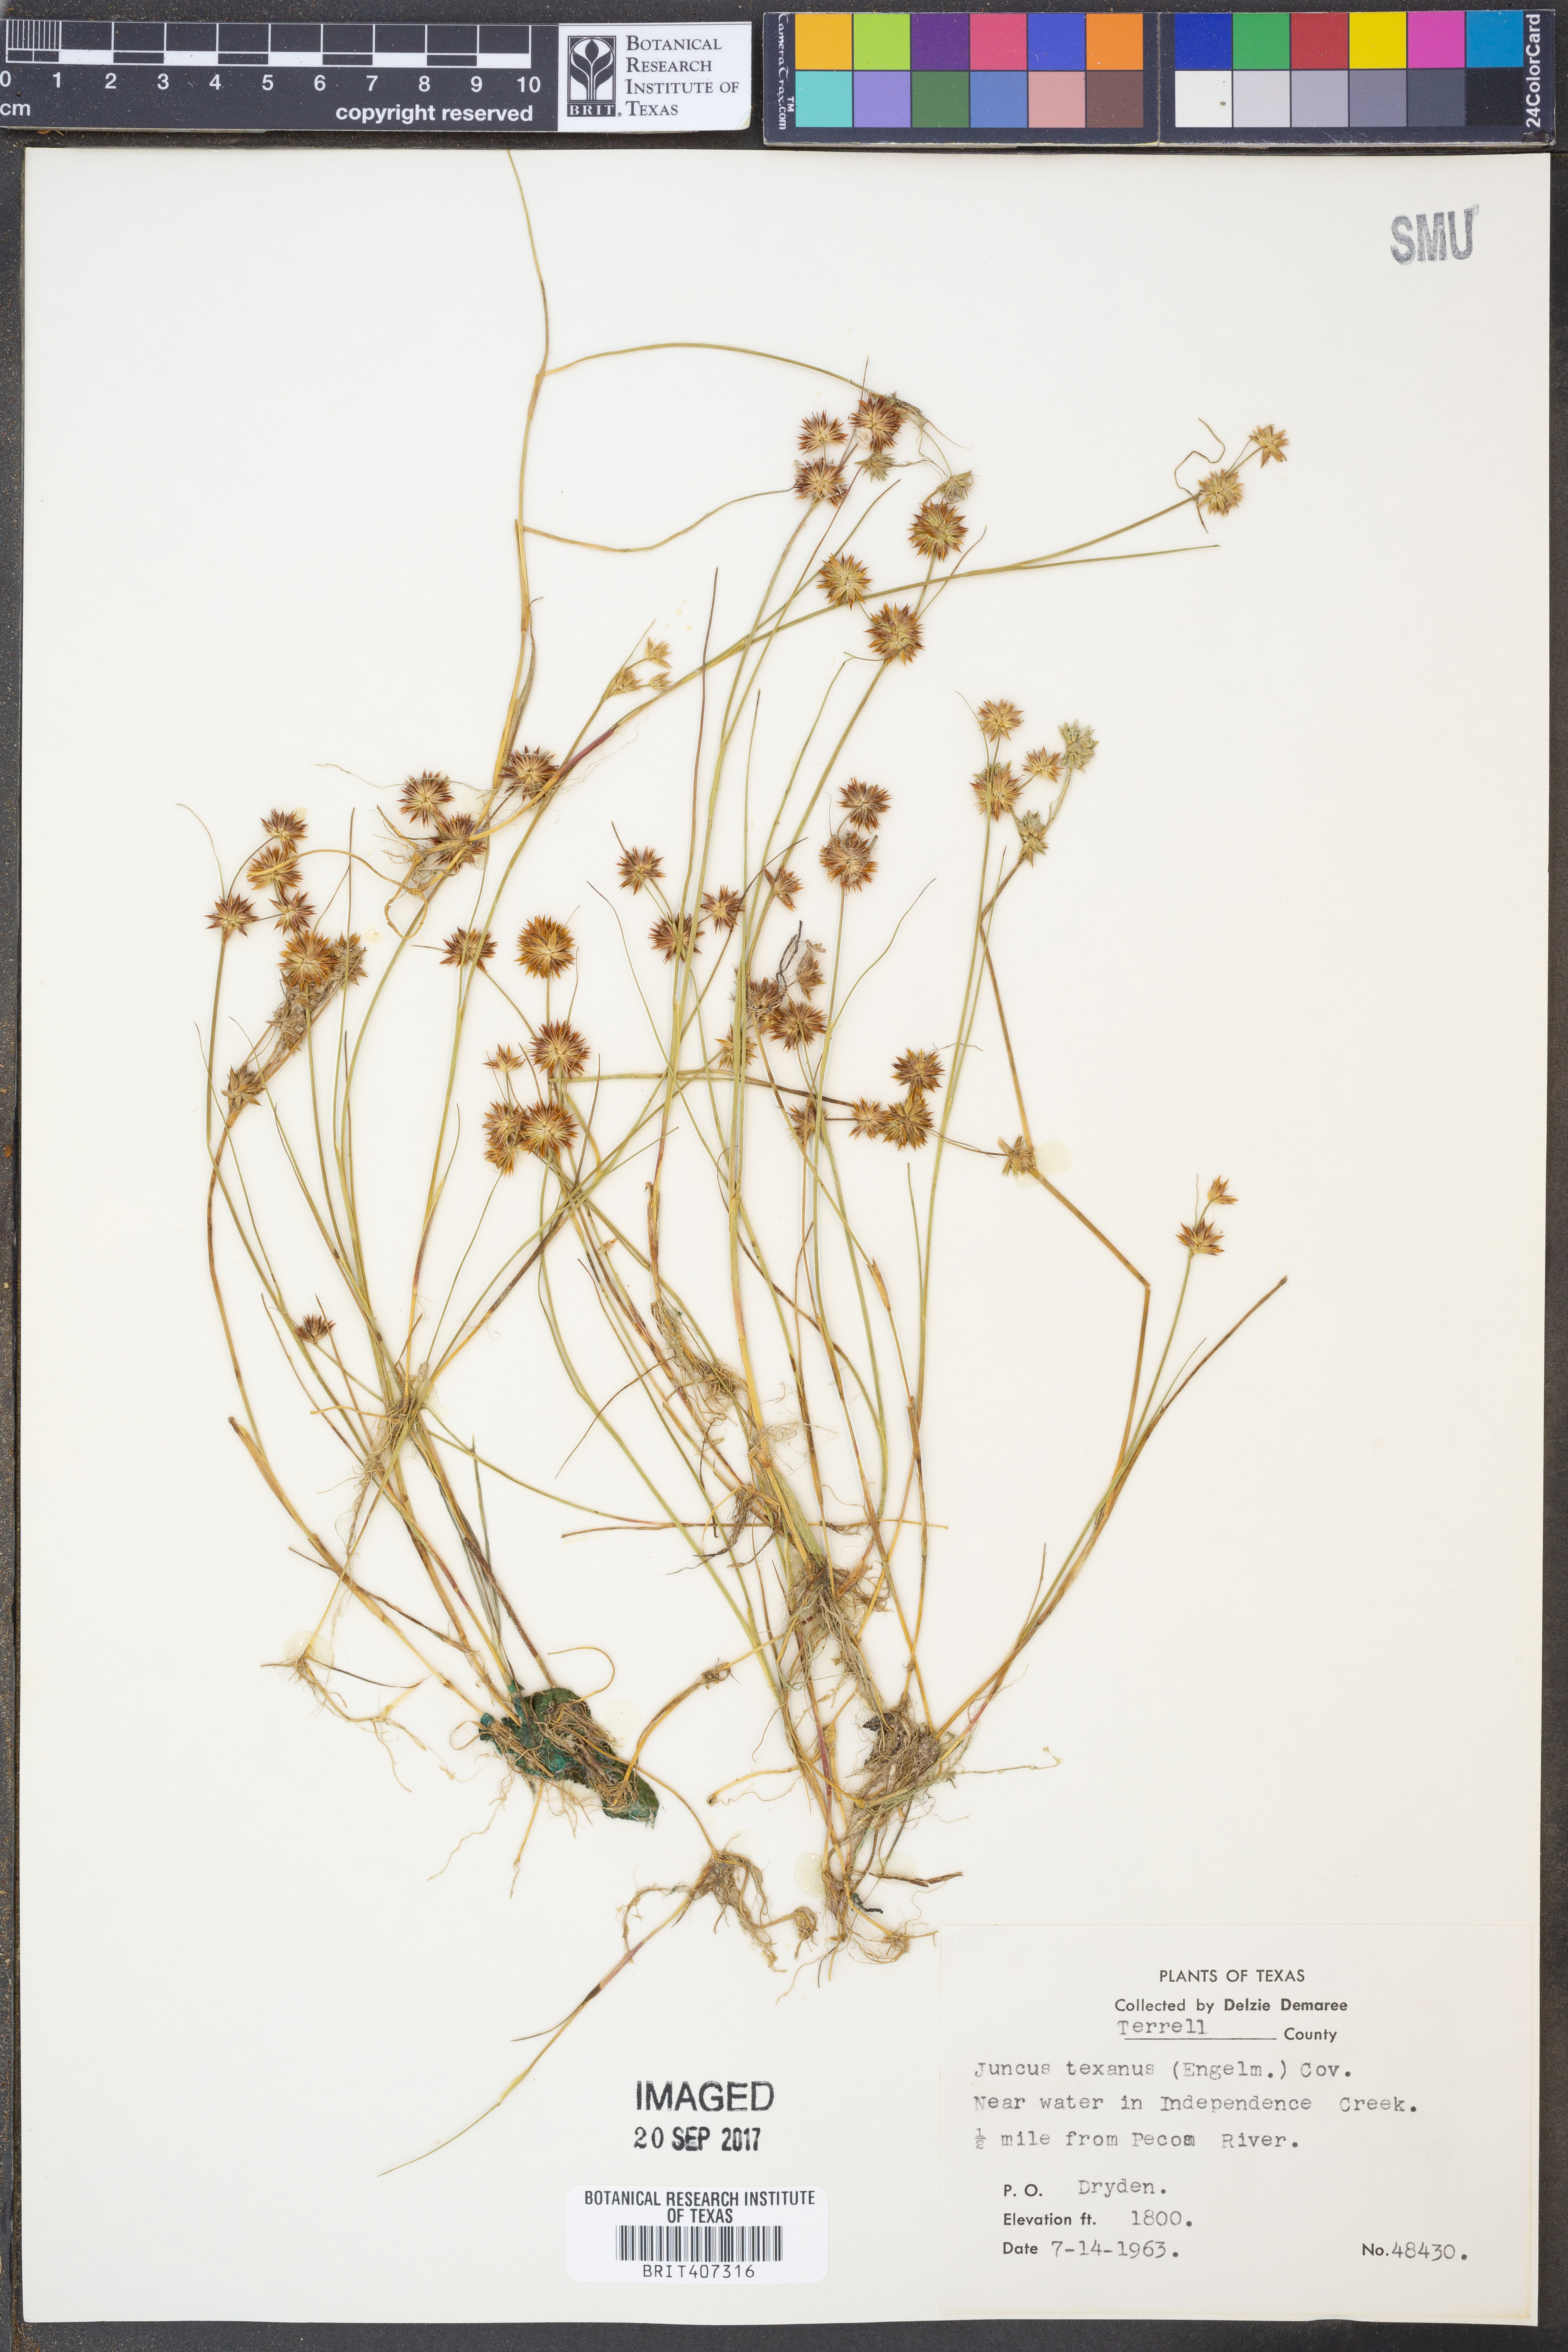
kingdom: Plantae
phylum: Tracheophyta
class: Liliopsida
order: Poales
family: Juncaceae
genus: Juncus
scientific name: Juncus texanus
